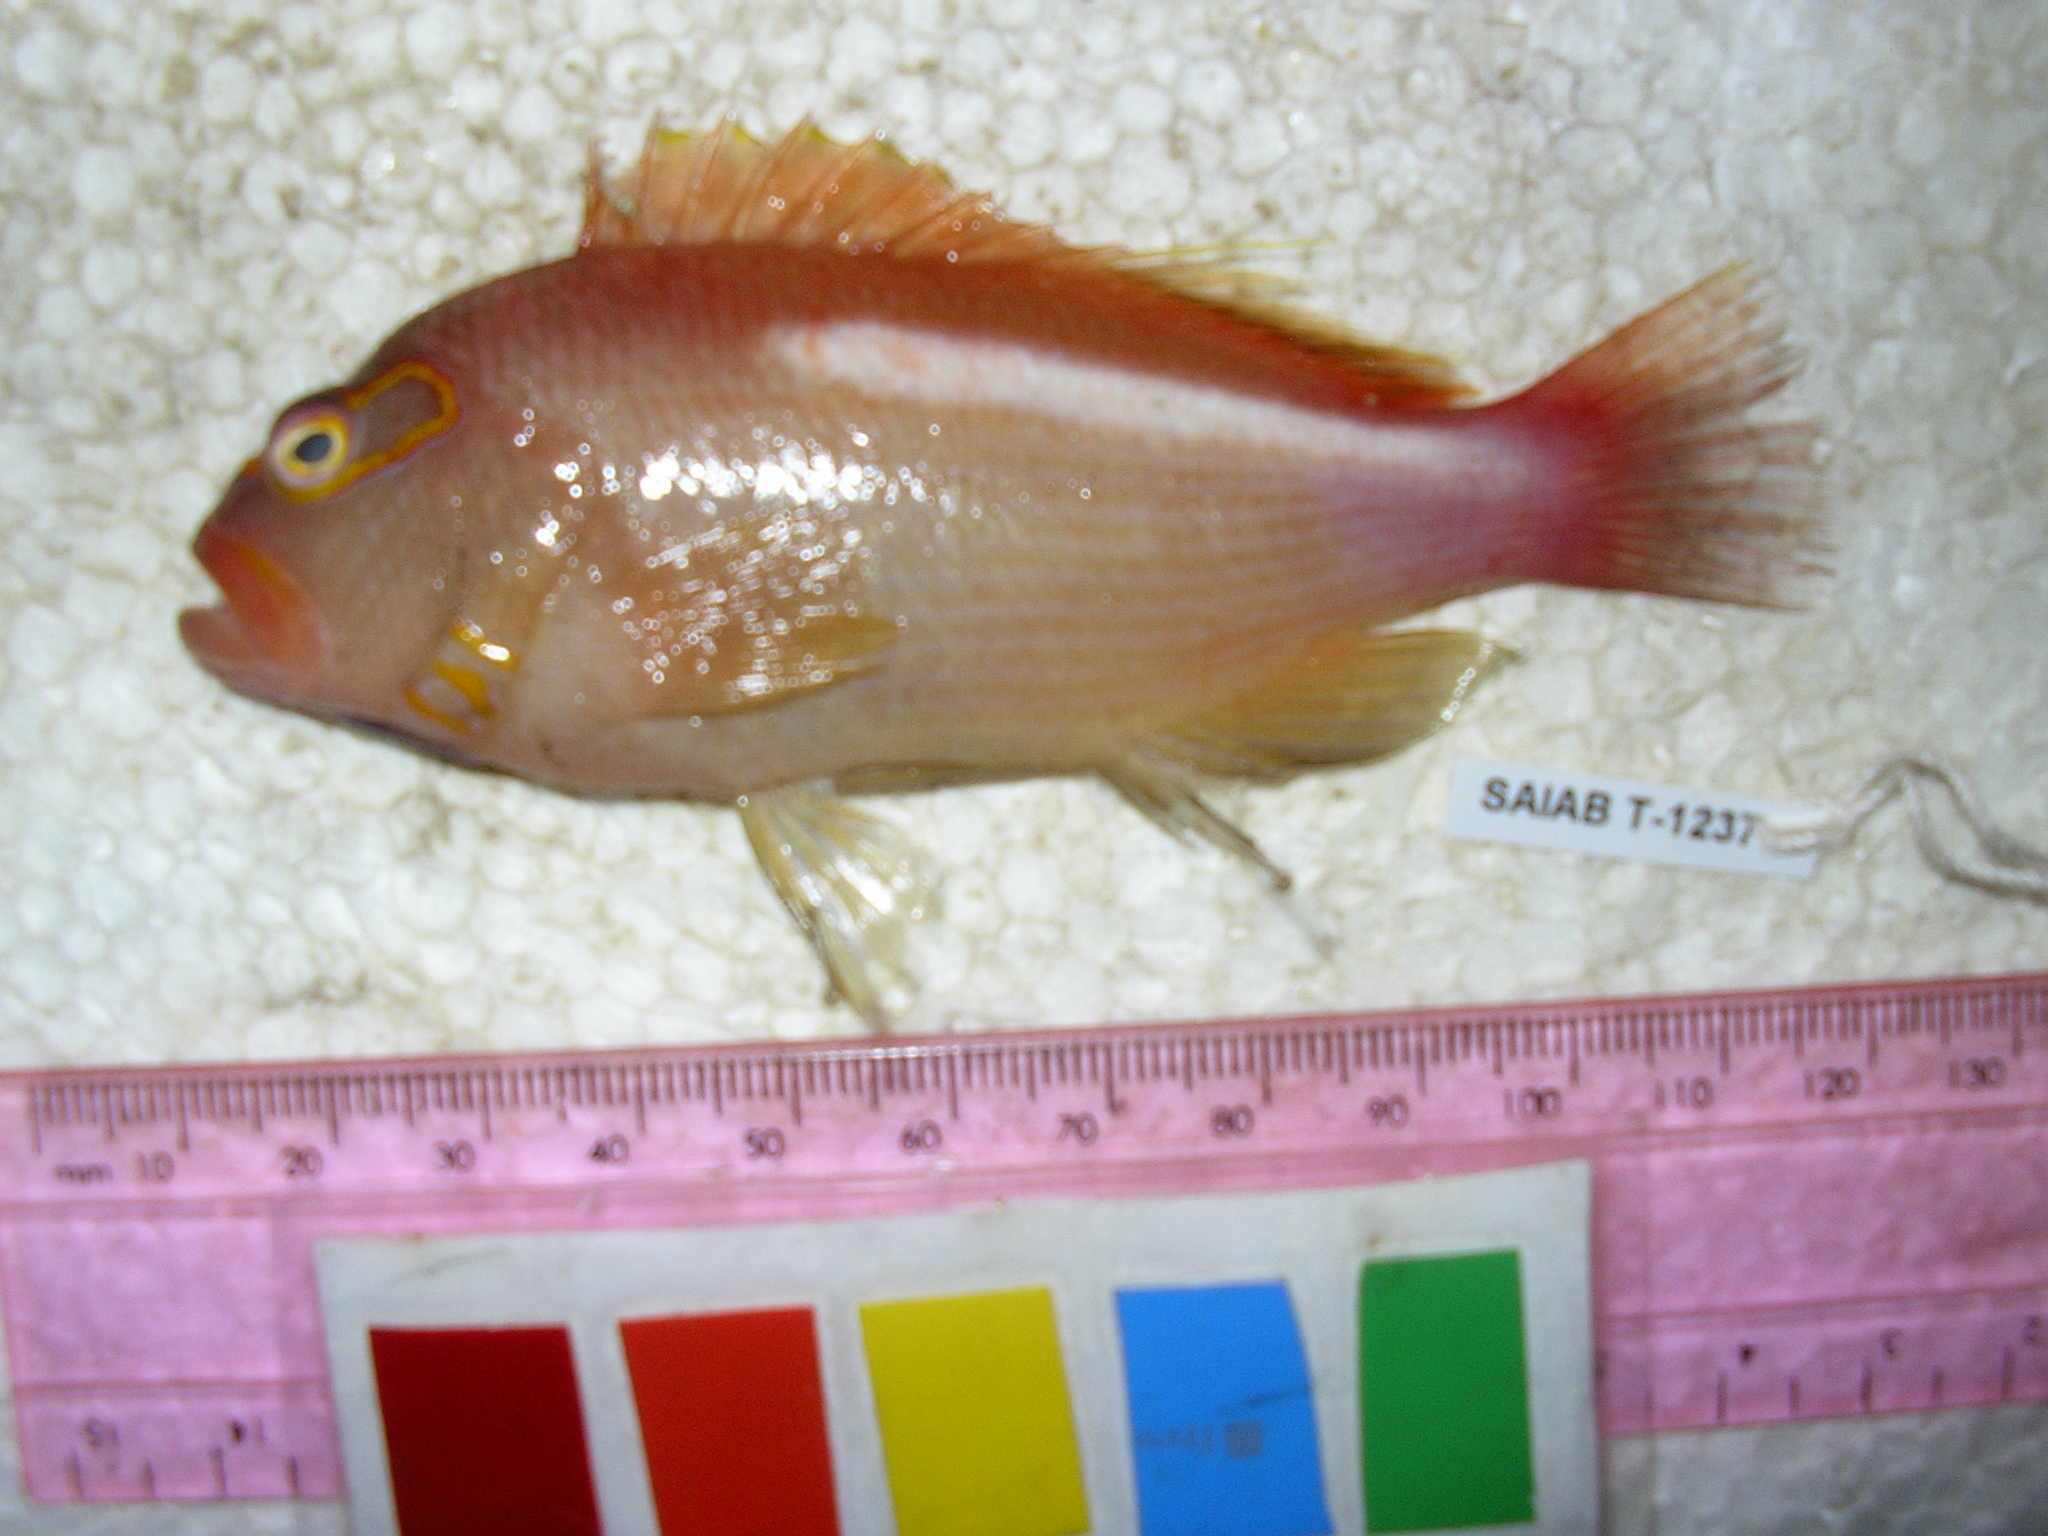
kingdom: Animalia
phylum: Chordata
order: Perciformes
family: Cirrhitidae
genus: Paracirrhites
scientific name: Paracirrhites arcatus
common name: Arc-eye hawkfish
